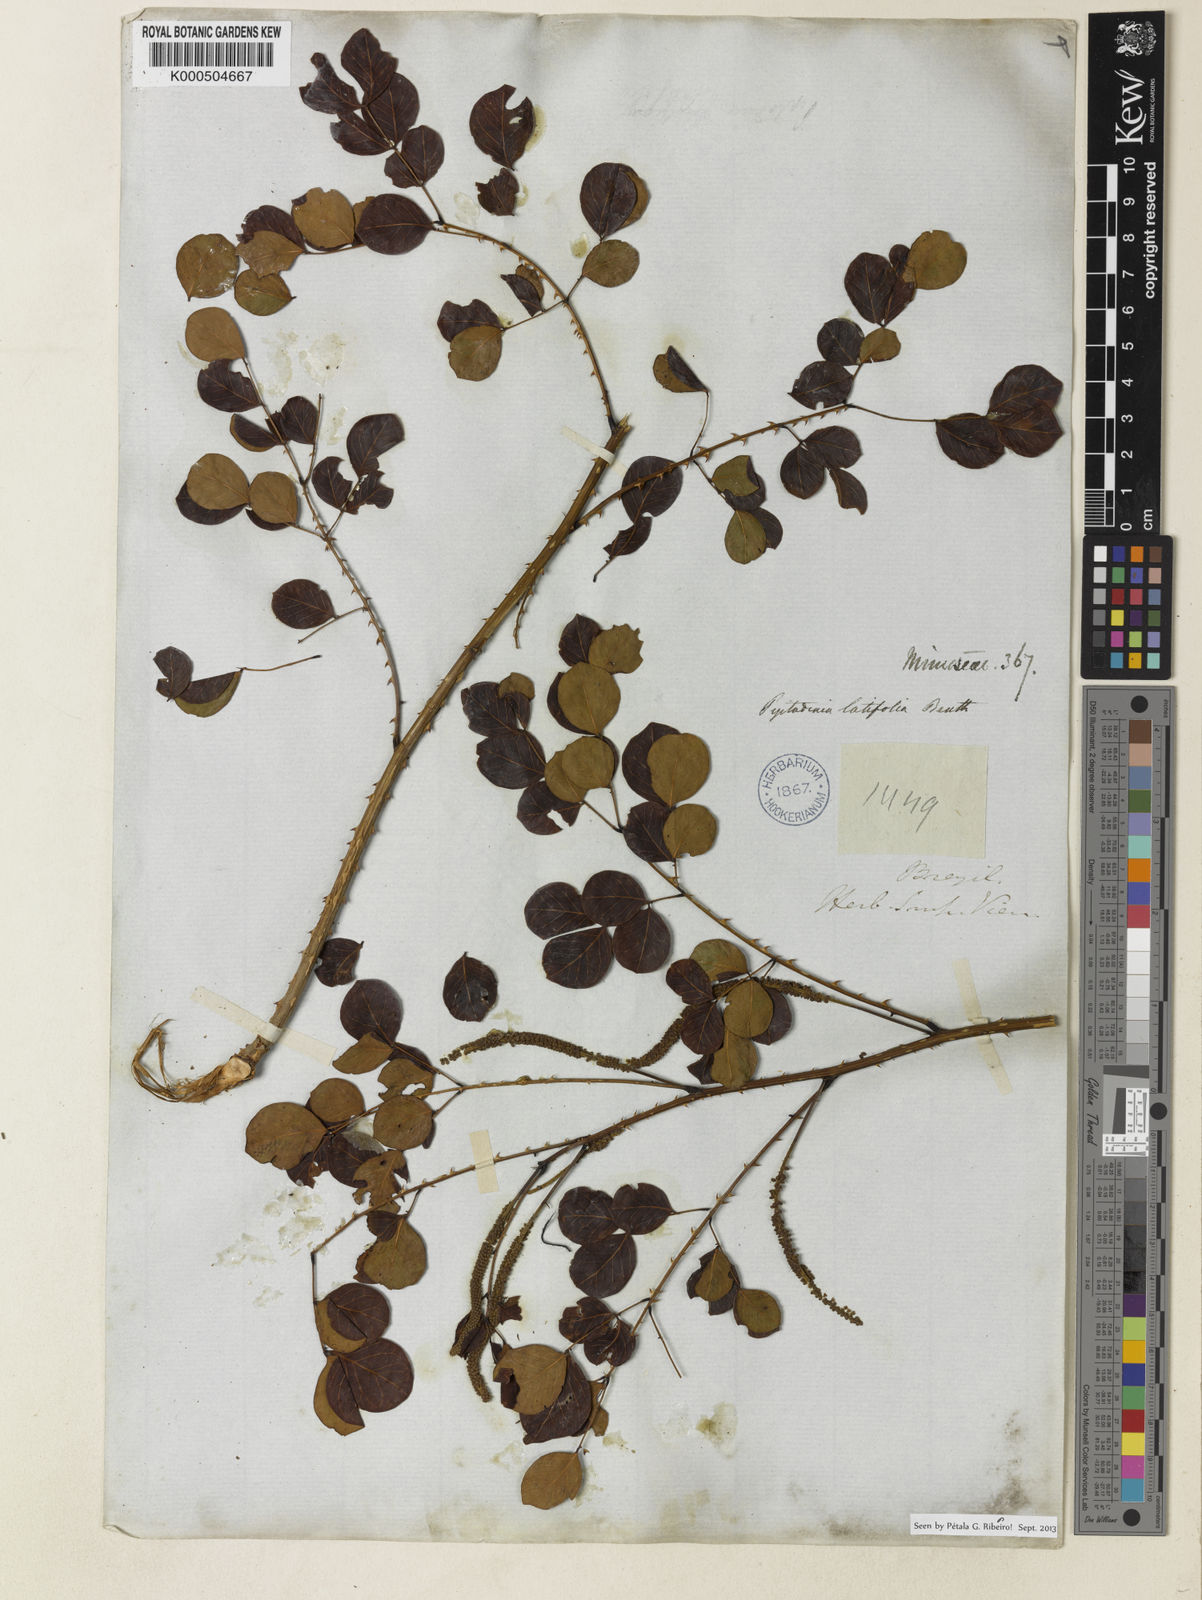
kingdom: Plantae
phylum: Tracheophyta
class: Magnoliopsida
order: Fabales
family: Fabaceae
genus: Piptadenia
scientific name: Piptadenia adiantoides
